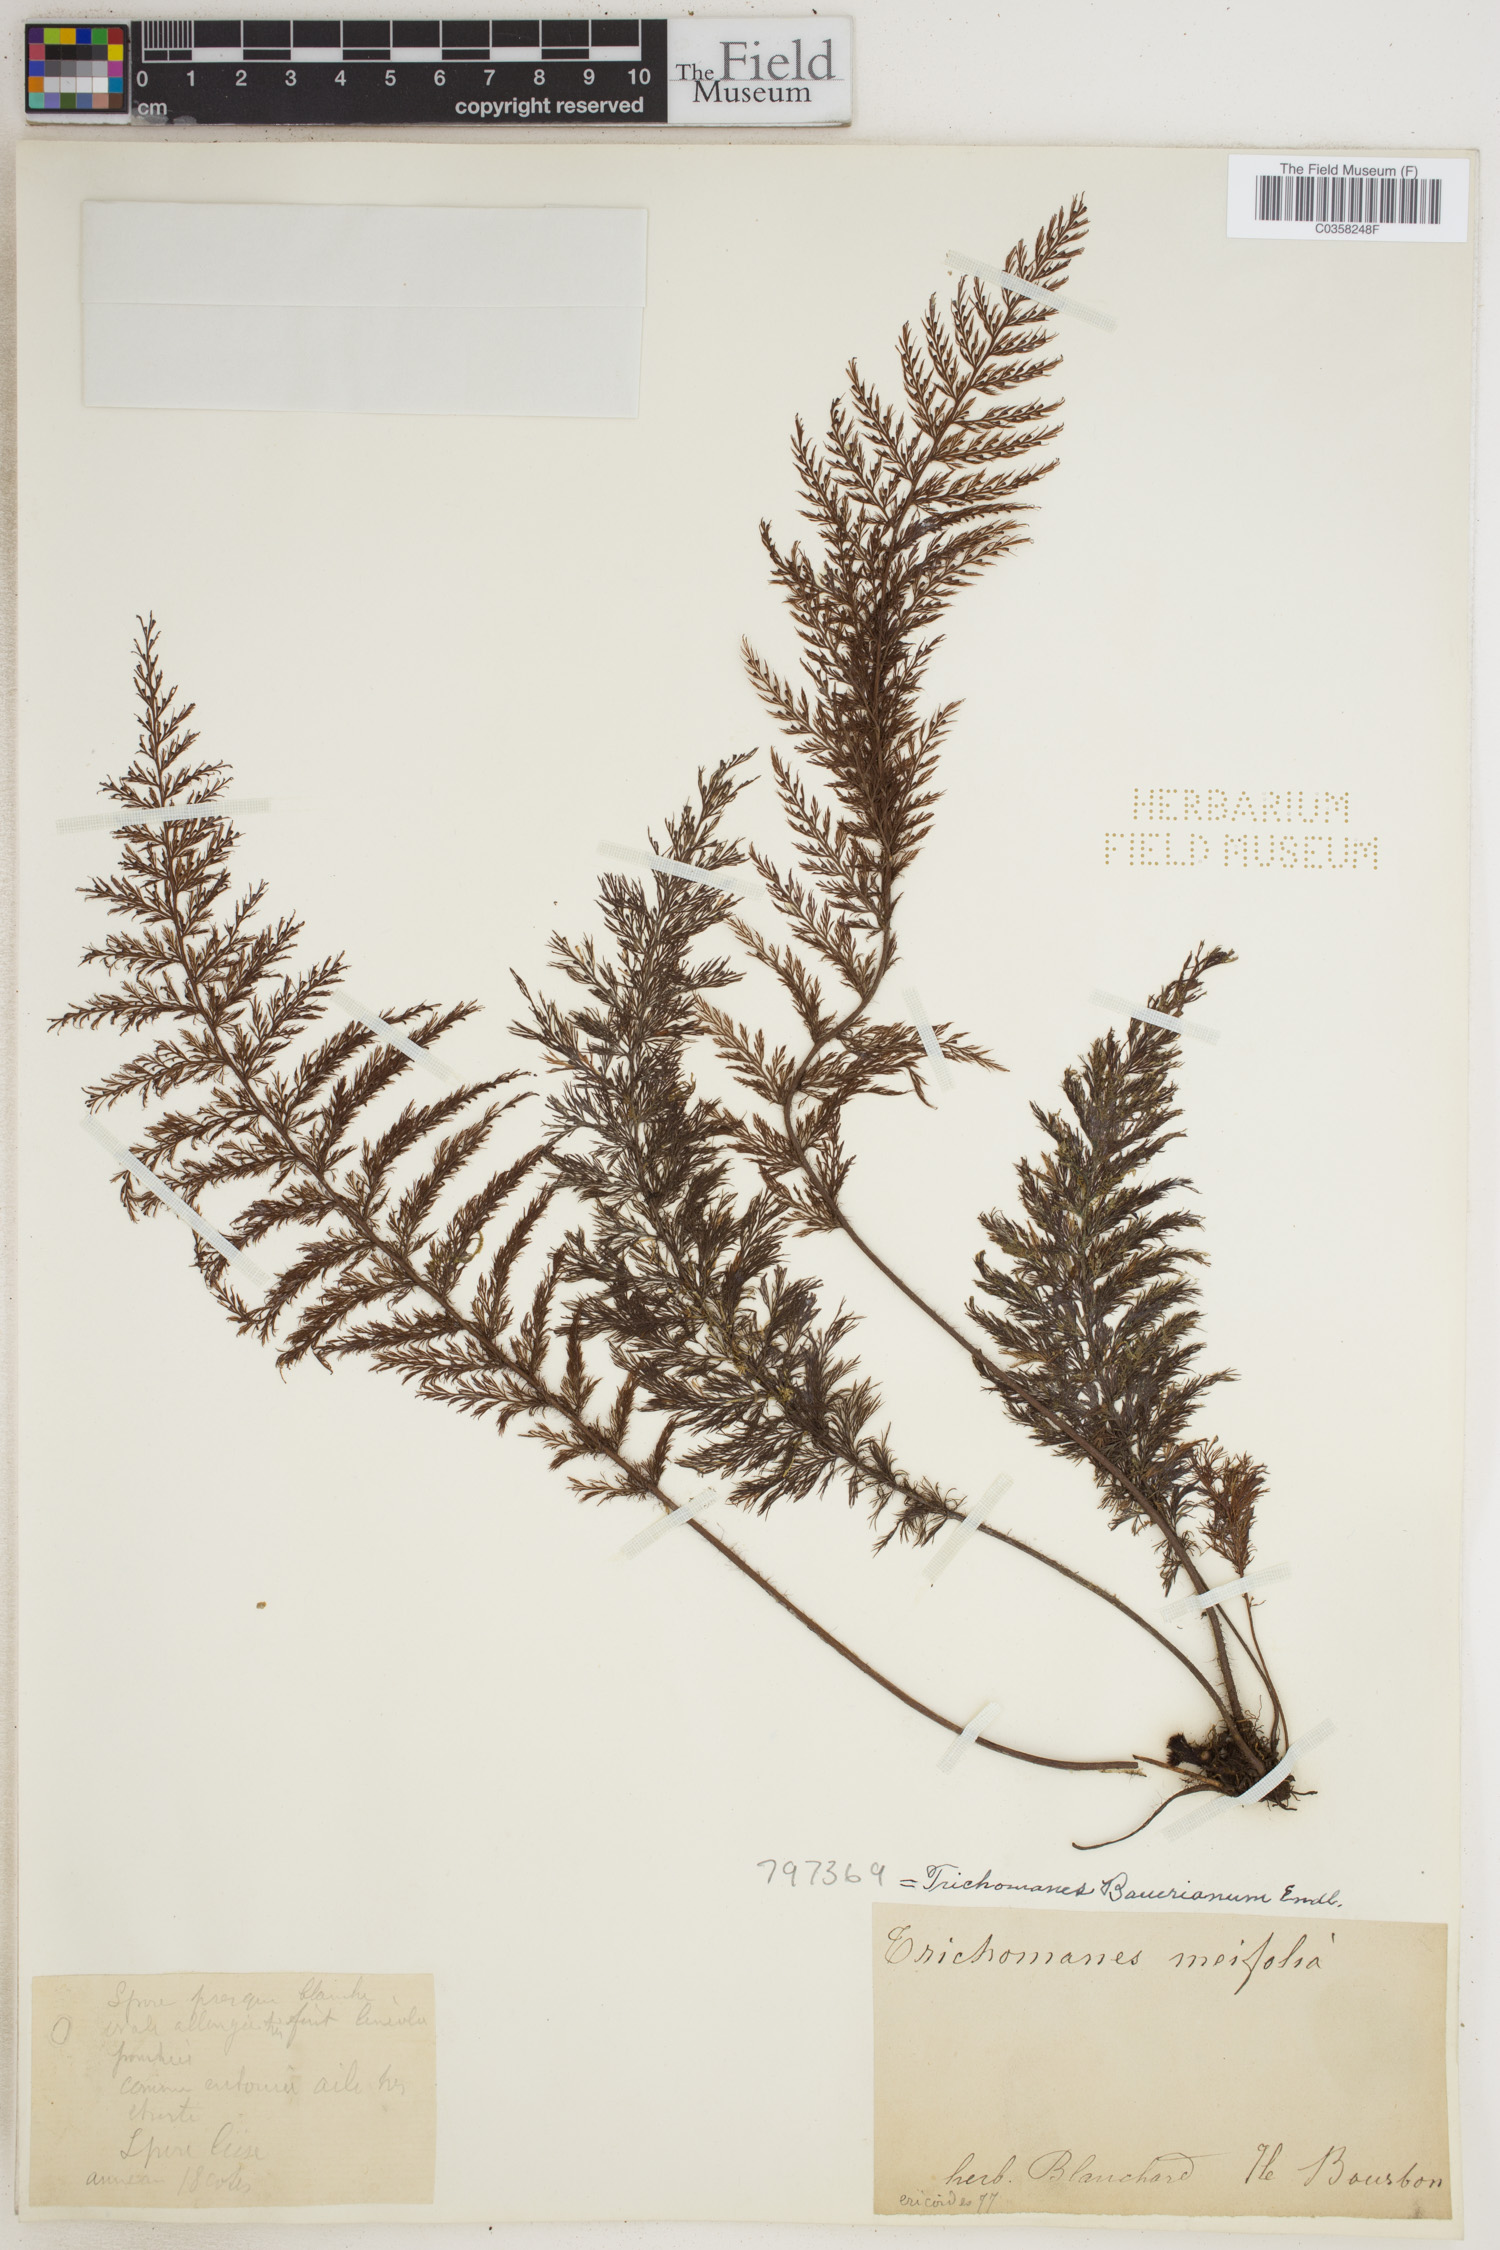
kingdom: Plantae
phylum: Tracheophyta
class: Polypodiopsida
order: Hymenophyllales
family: Hymenophyllaceae
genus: Callistopteris
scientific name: Callistopteris baueriana
